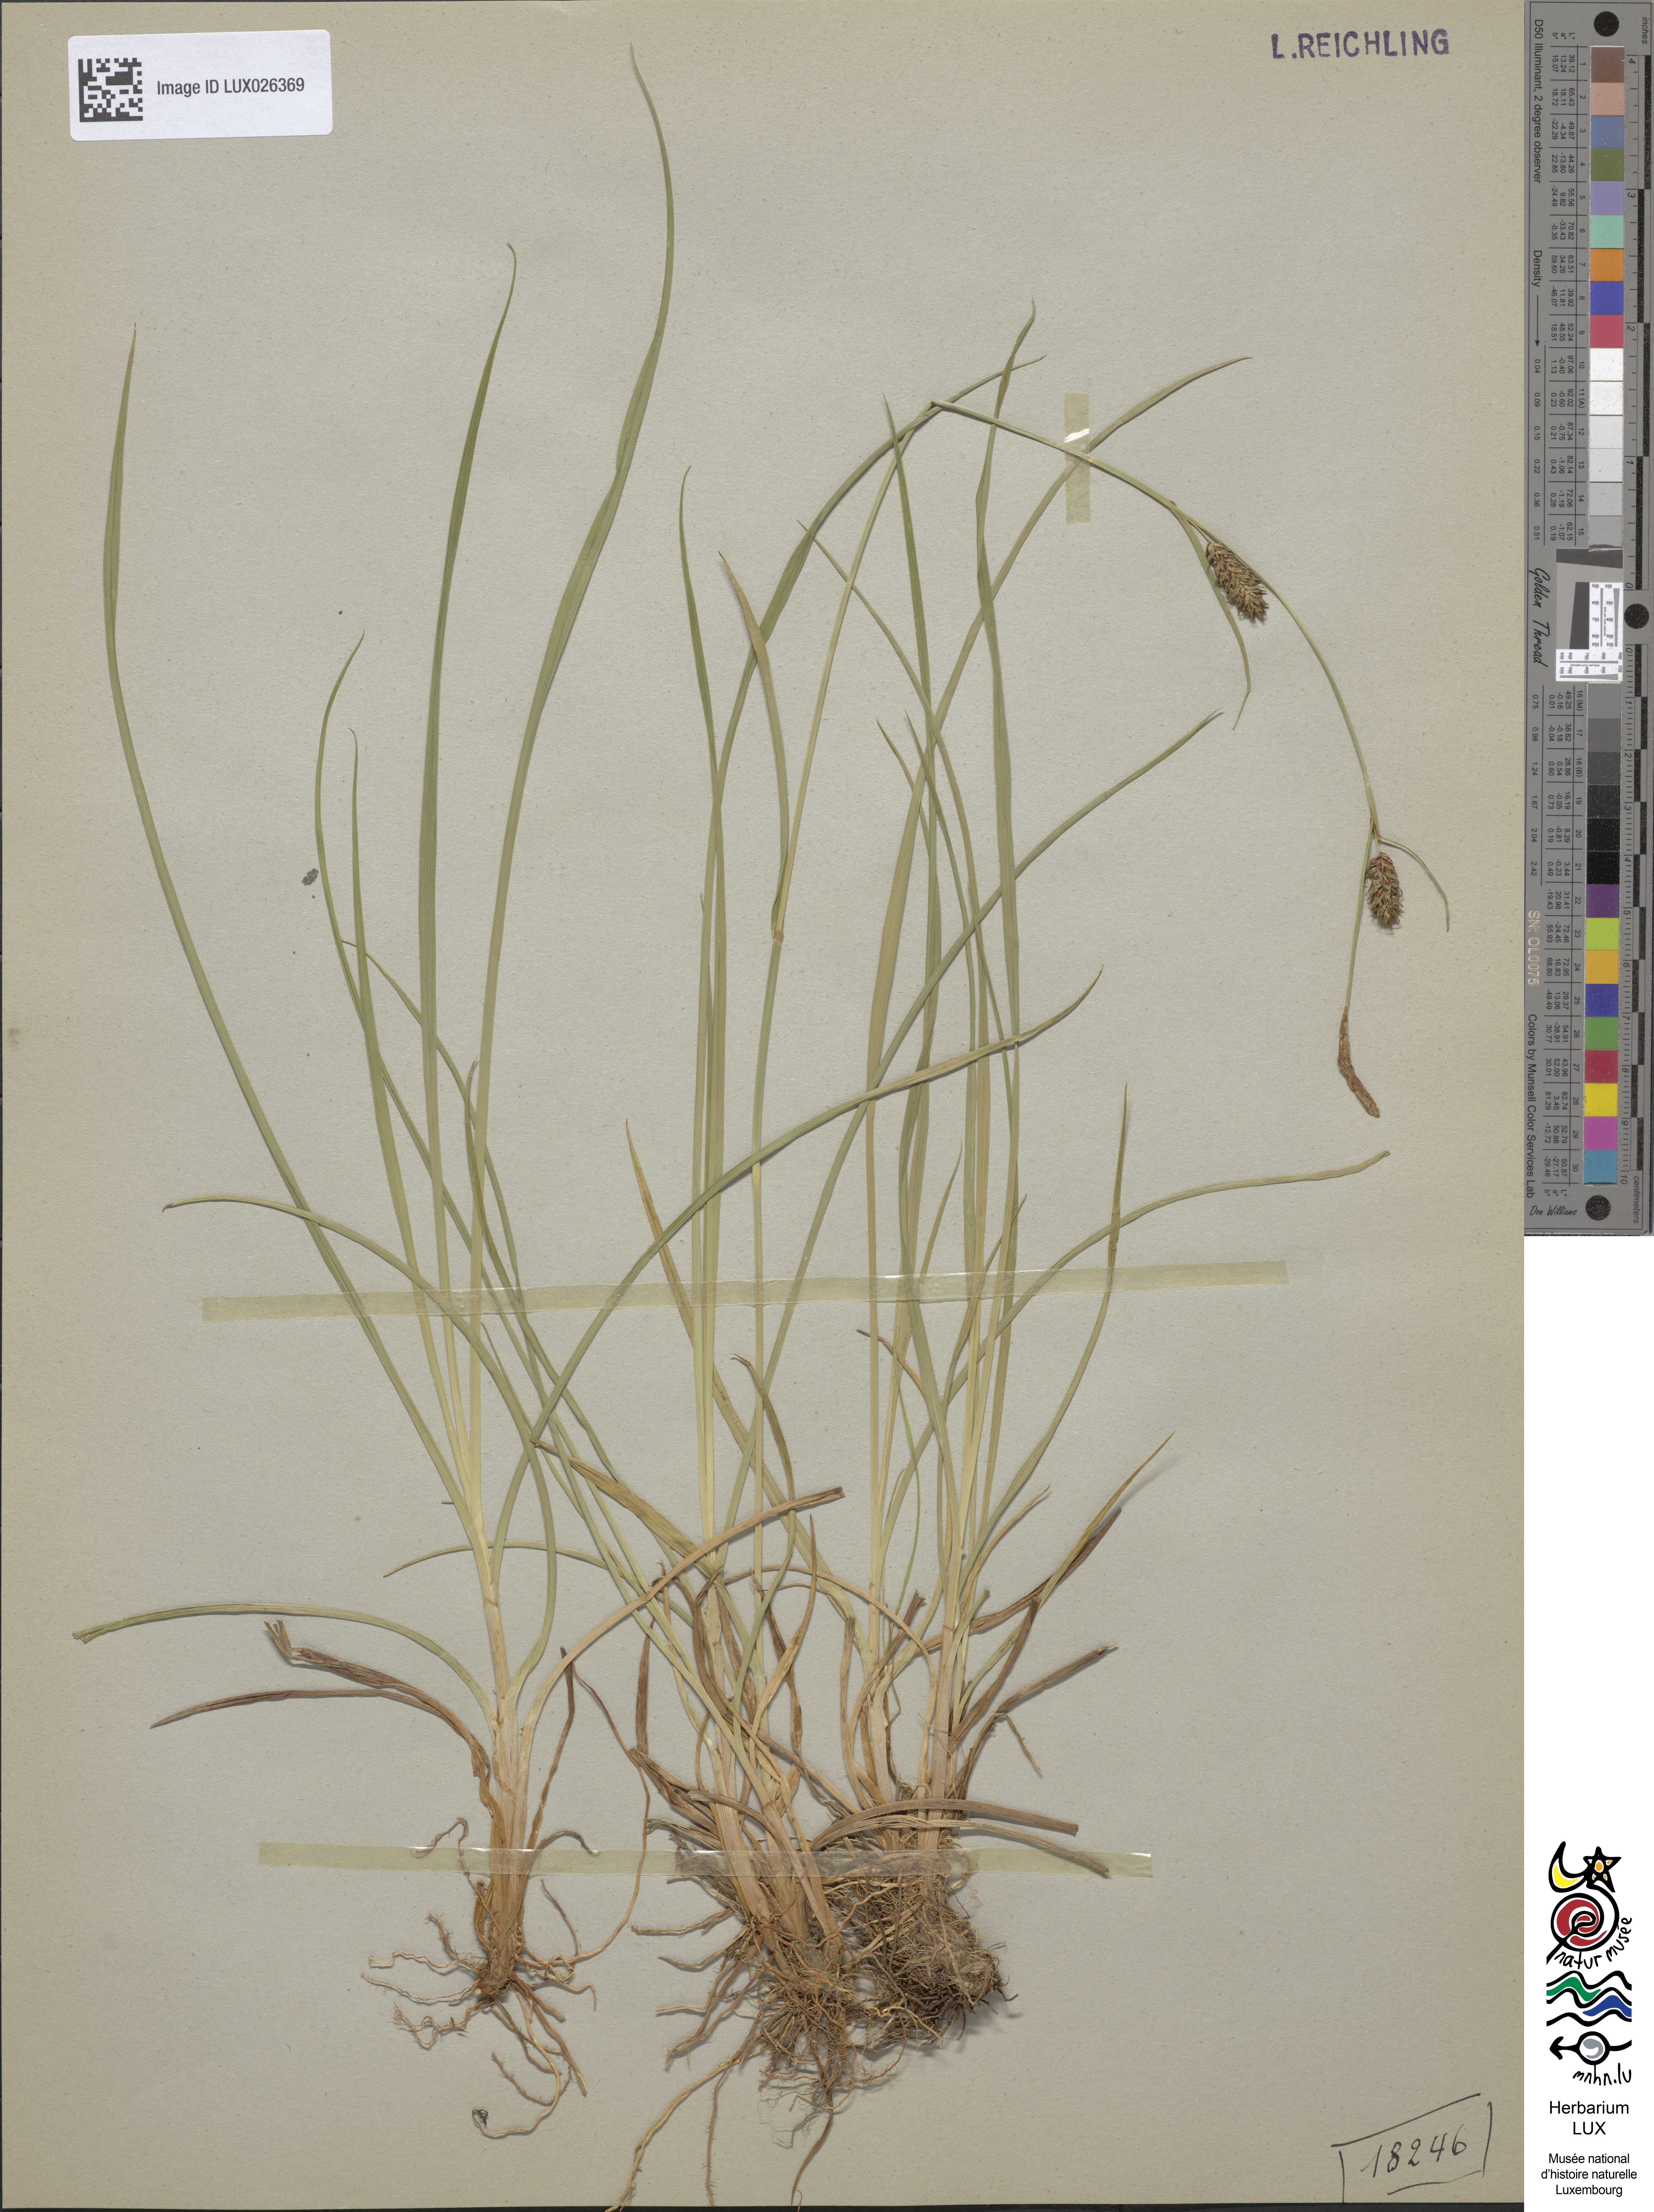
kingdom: Plantae
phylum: Tracheophyta
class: Liliopsida
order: Poales
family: Cyperaceae
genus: Carex
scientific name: Carex distans
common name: Distant sedge
